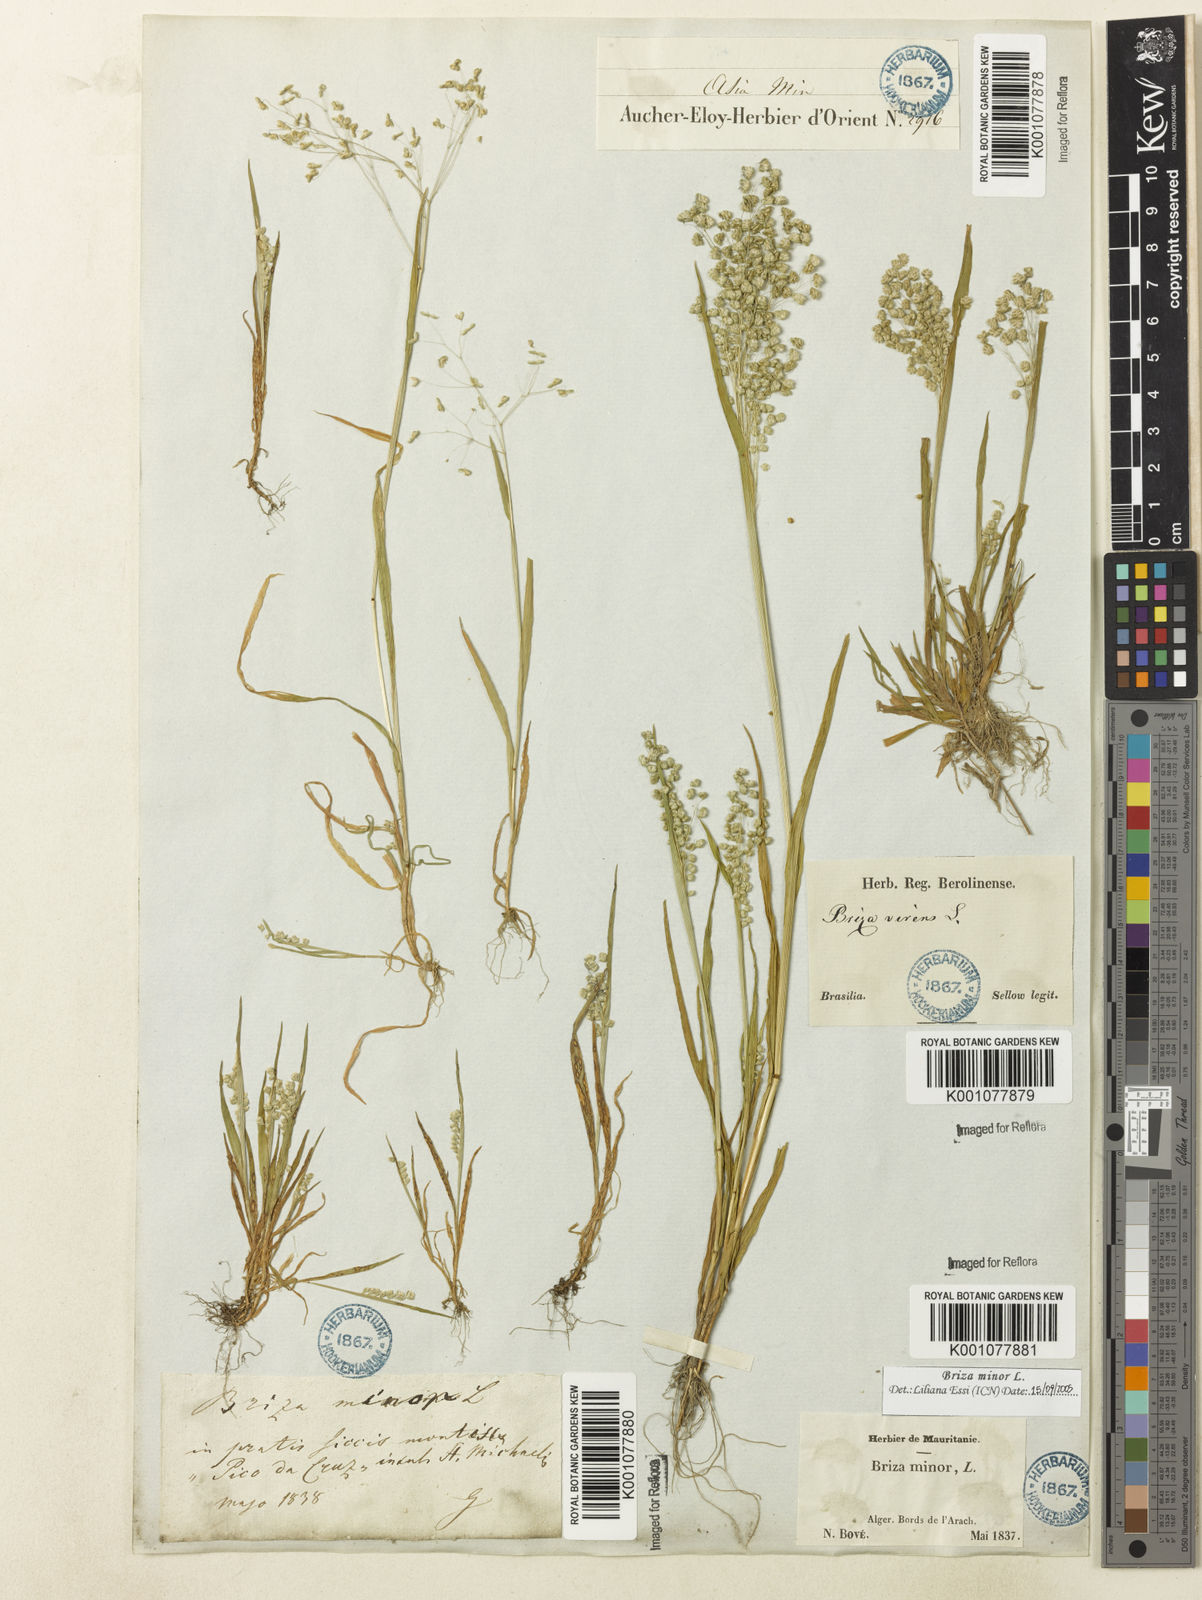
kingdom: Plantae
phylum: Tracheophyta
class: Liliopsida
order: Poales
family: Poaceae
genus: Briza
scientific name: Briza minor
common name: Lesser quaking-grass
